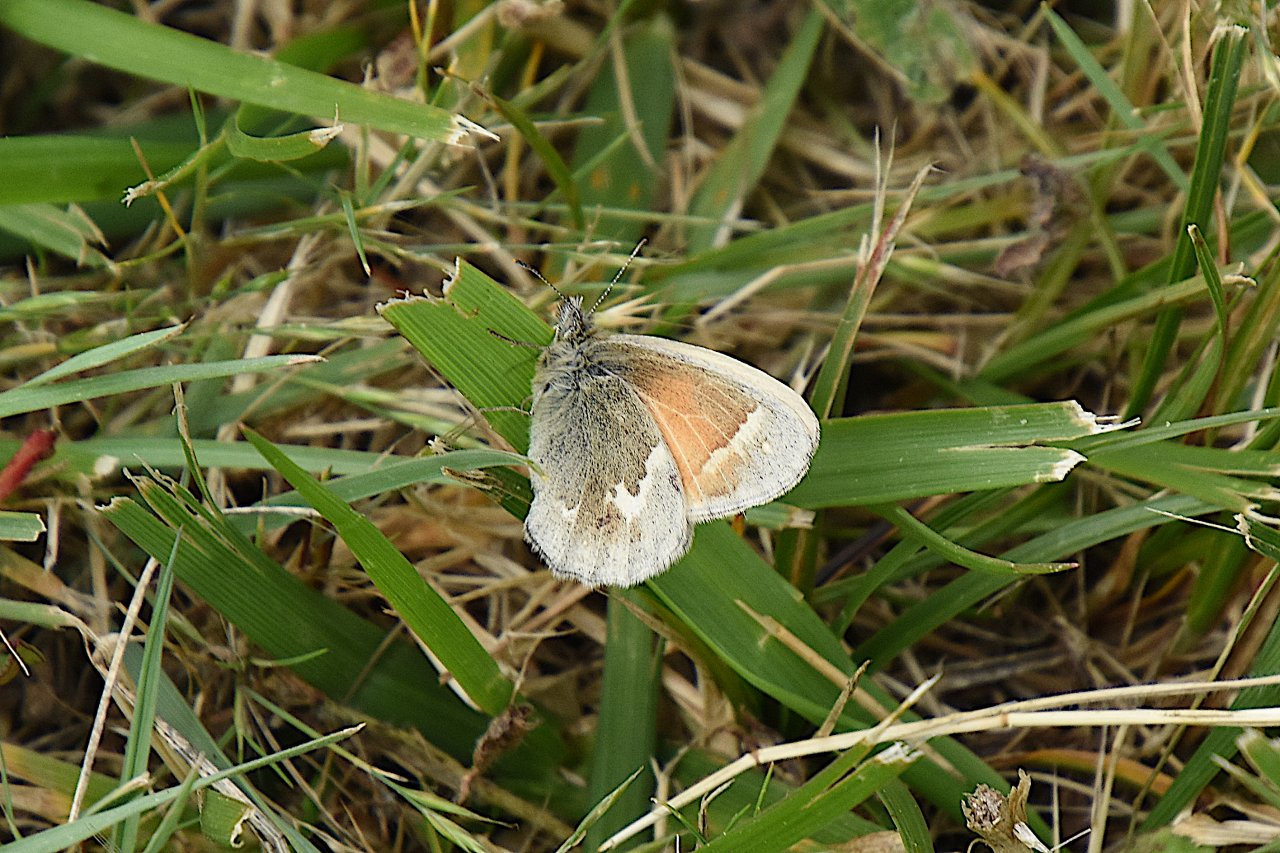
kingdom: Animalia
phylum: Arthropoda
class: Insecta
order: Lepidoptera
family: Nymphalidae
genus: Coenonympha
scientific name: Coenonympha tullia
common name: Large Heath
